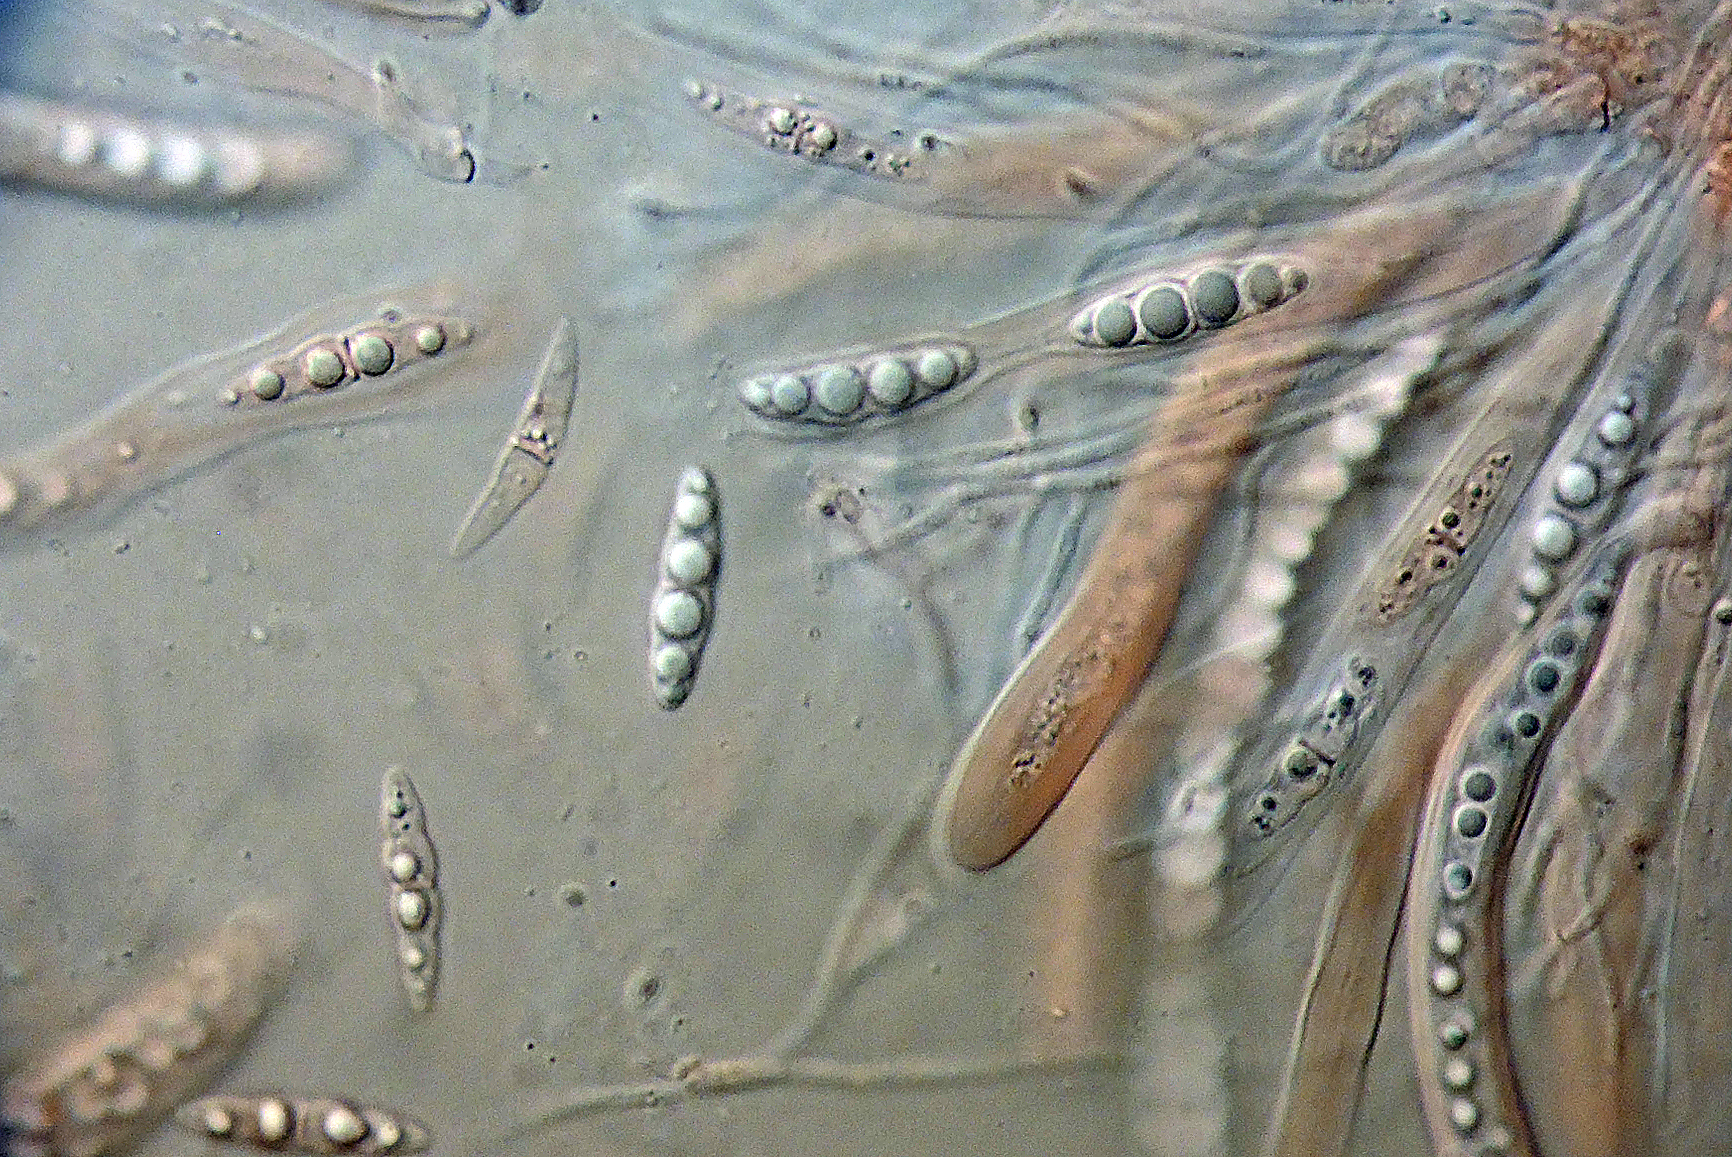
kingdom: Fungi
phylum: Ascomycota
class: Dothideomycetes
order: Pleosporales
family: Lophiostomataceae
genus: Lophiostoma
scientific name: Lophiostoma corticola
